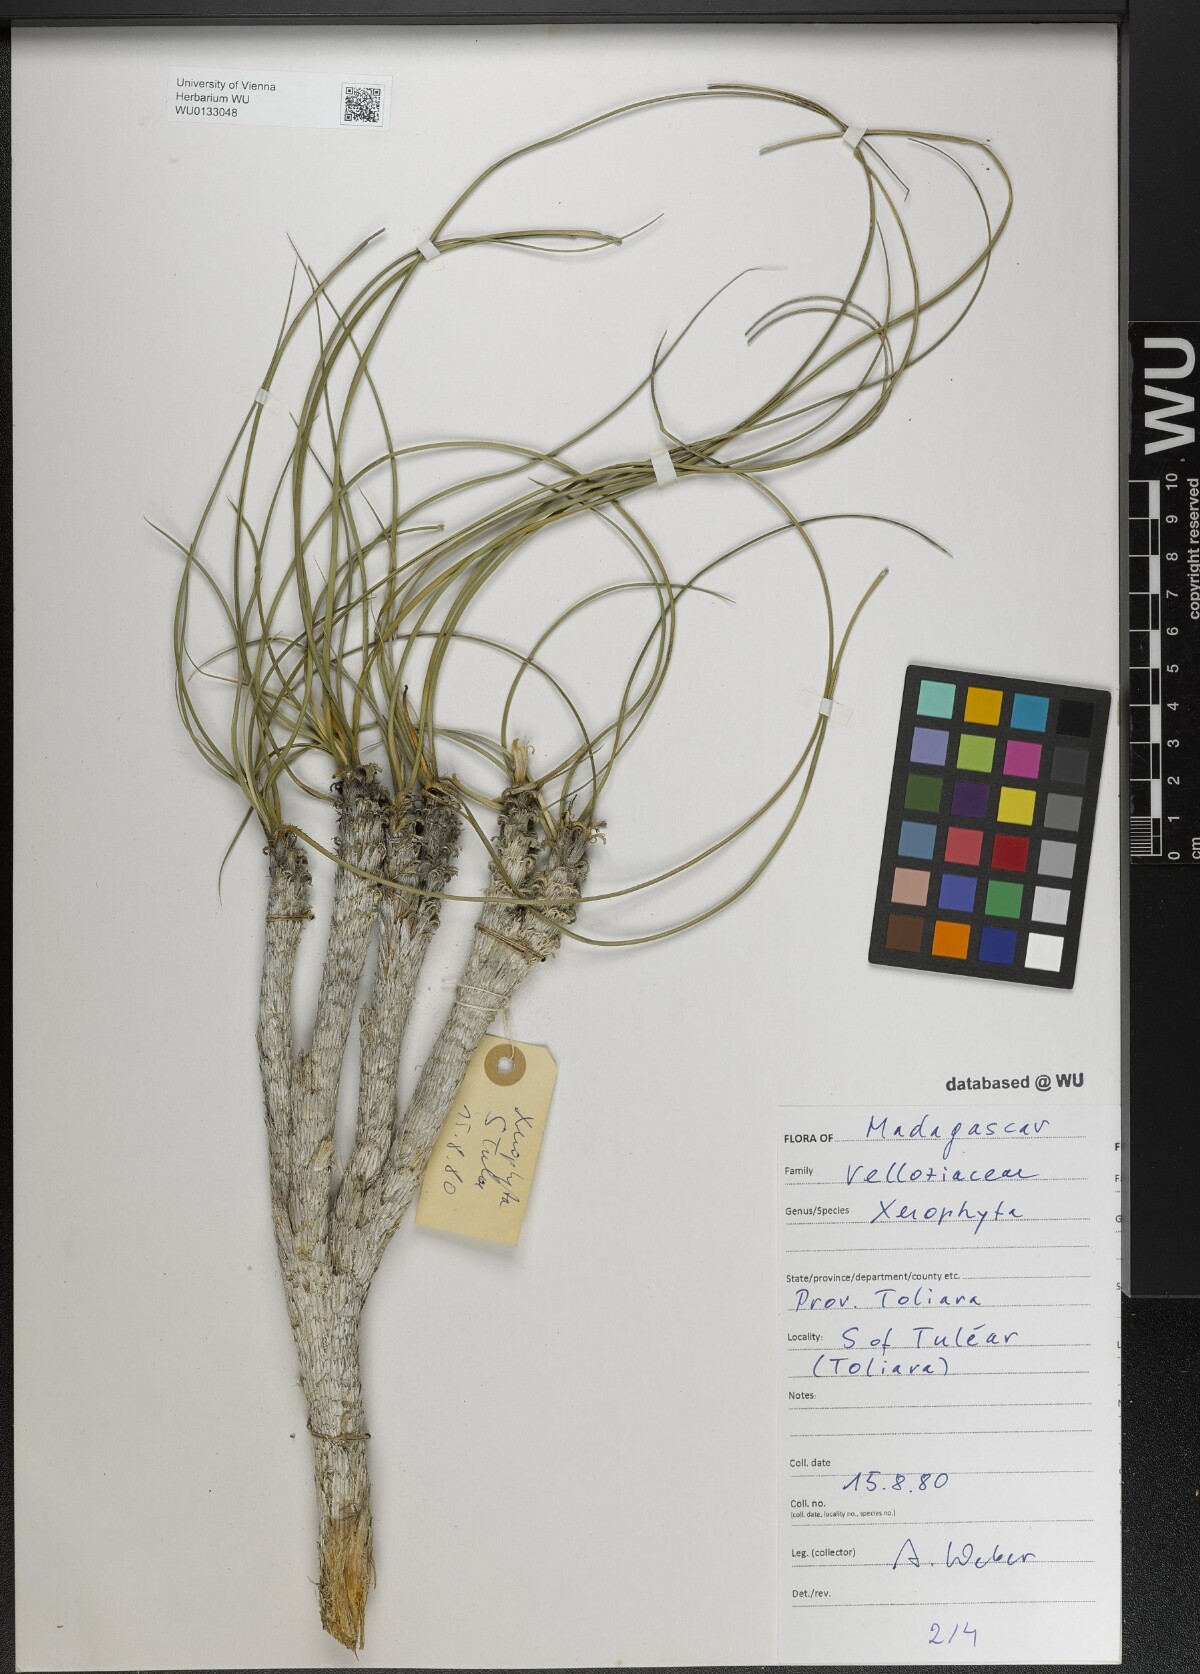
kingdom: Plantae
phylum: Tracheophyta
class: Liliopsida
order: Pandanales
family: Velloziaceae
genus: Xerophyta
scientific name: Xerophyta
